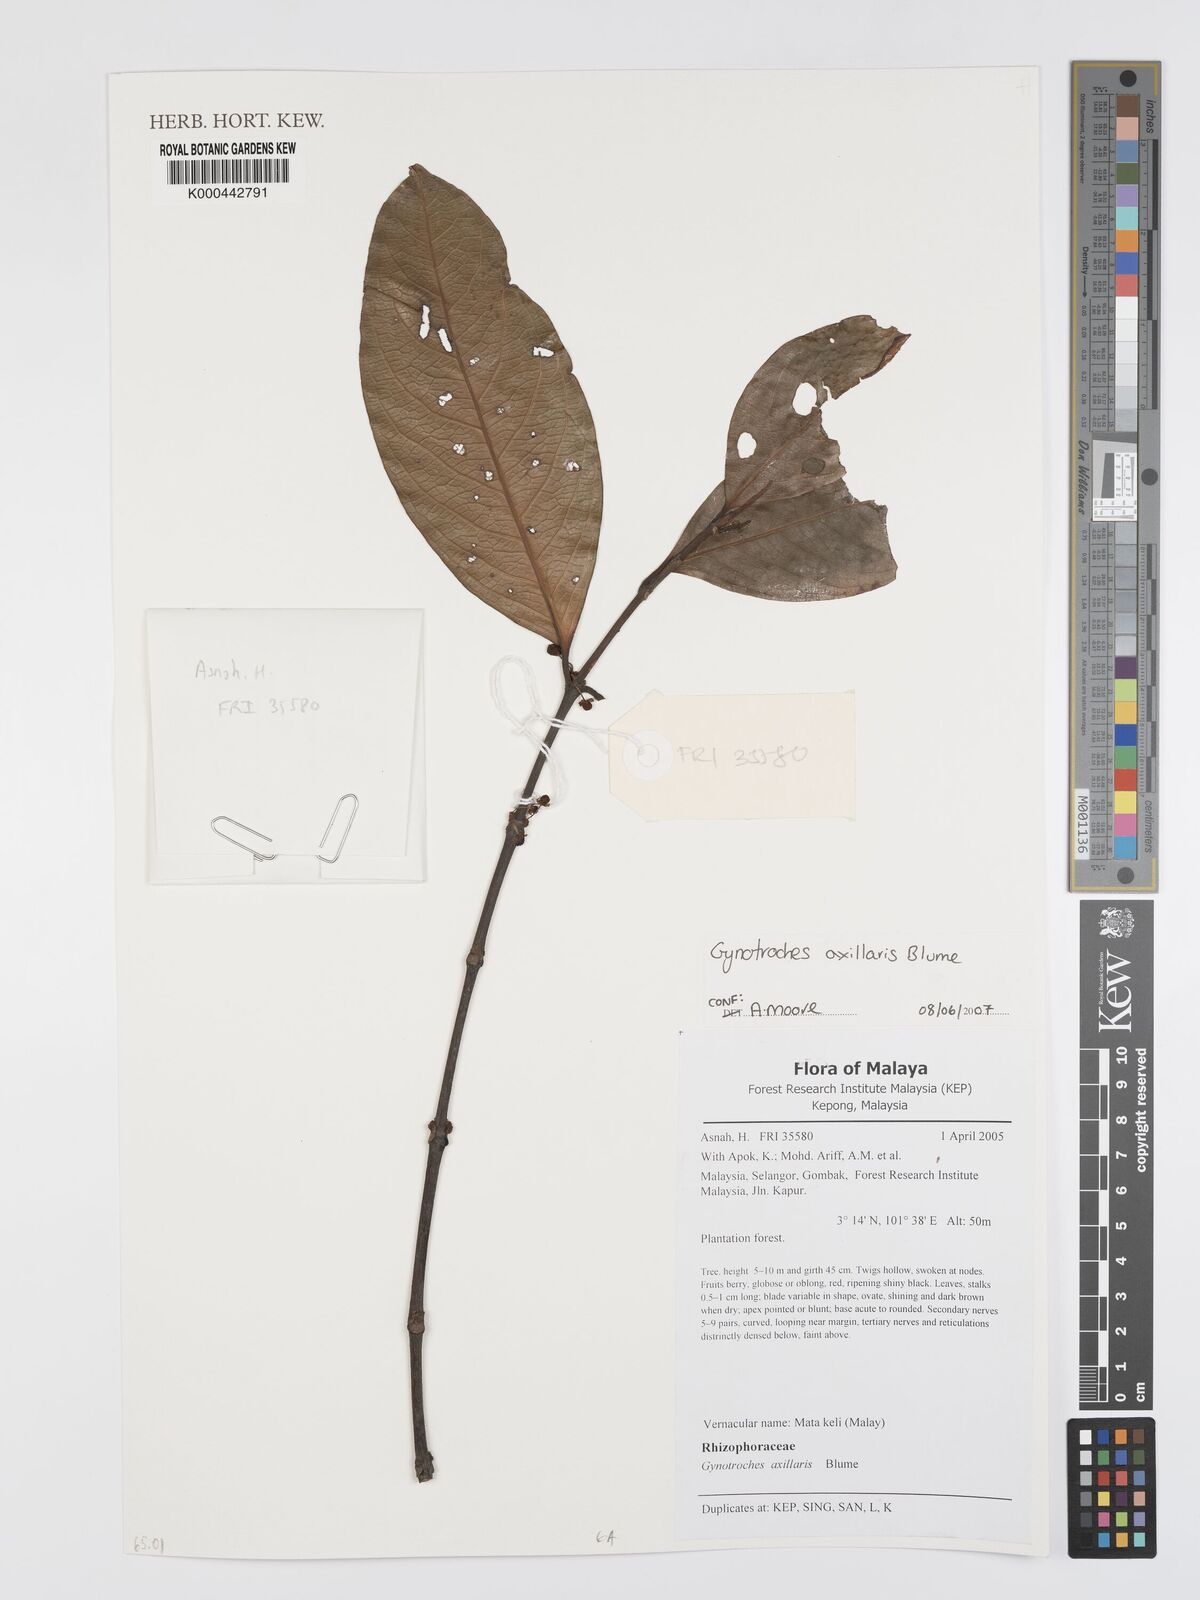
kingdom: Plantae
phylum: Tracheophyta
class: Magnoliopsida
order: Malpighiales
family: Rhizophoraceae
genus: Gynotroches
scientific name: Gynotroches axillaris
